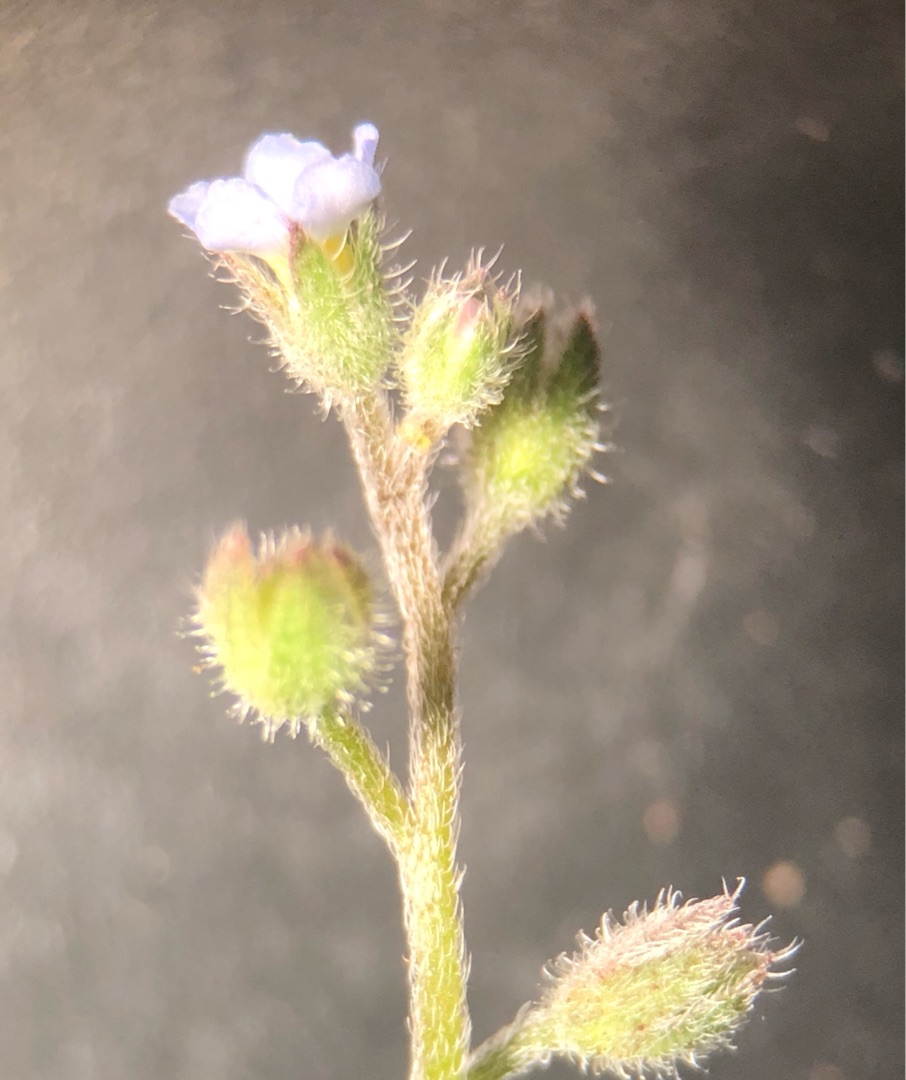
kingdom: Plantae
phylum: Tracheophyta
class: Magnoliopsida
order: Boraginales
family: Boraginaceae
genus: Myosotis
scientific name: Myosotis arvensis
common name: Mark-forglemmigej
